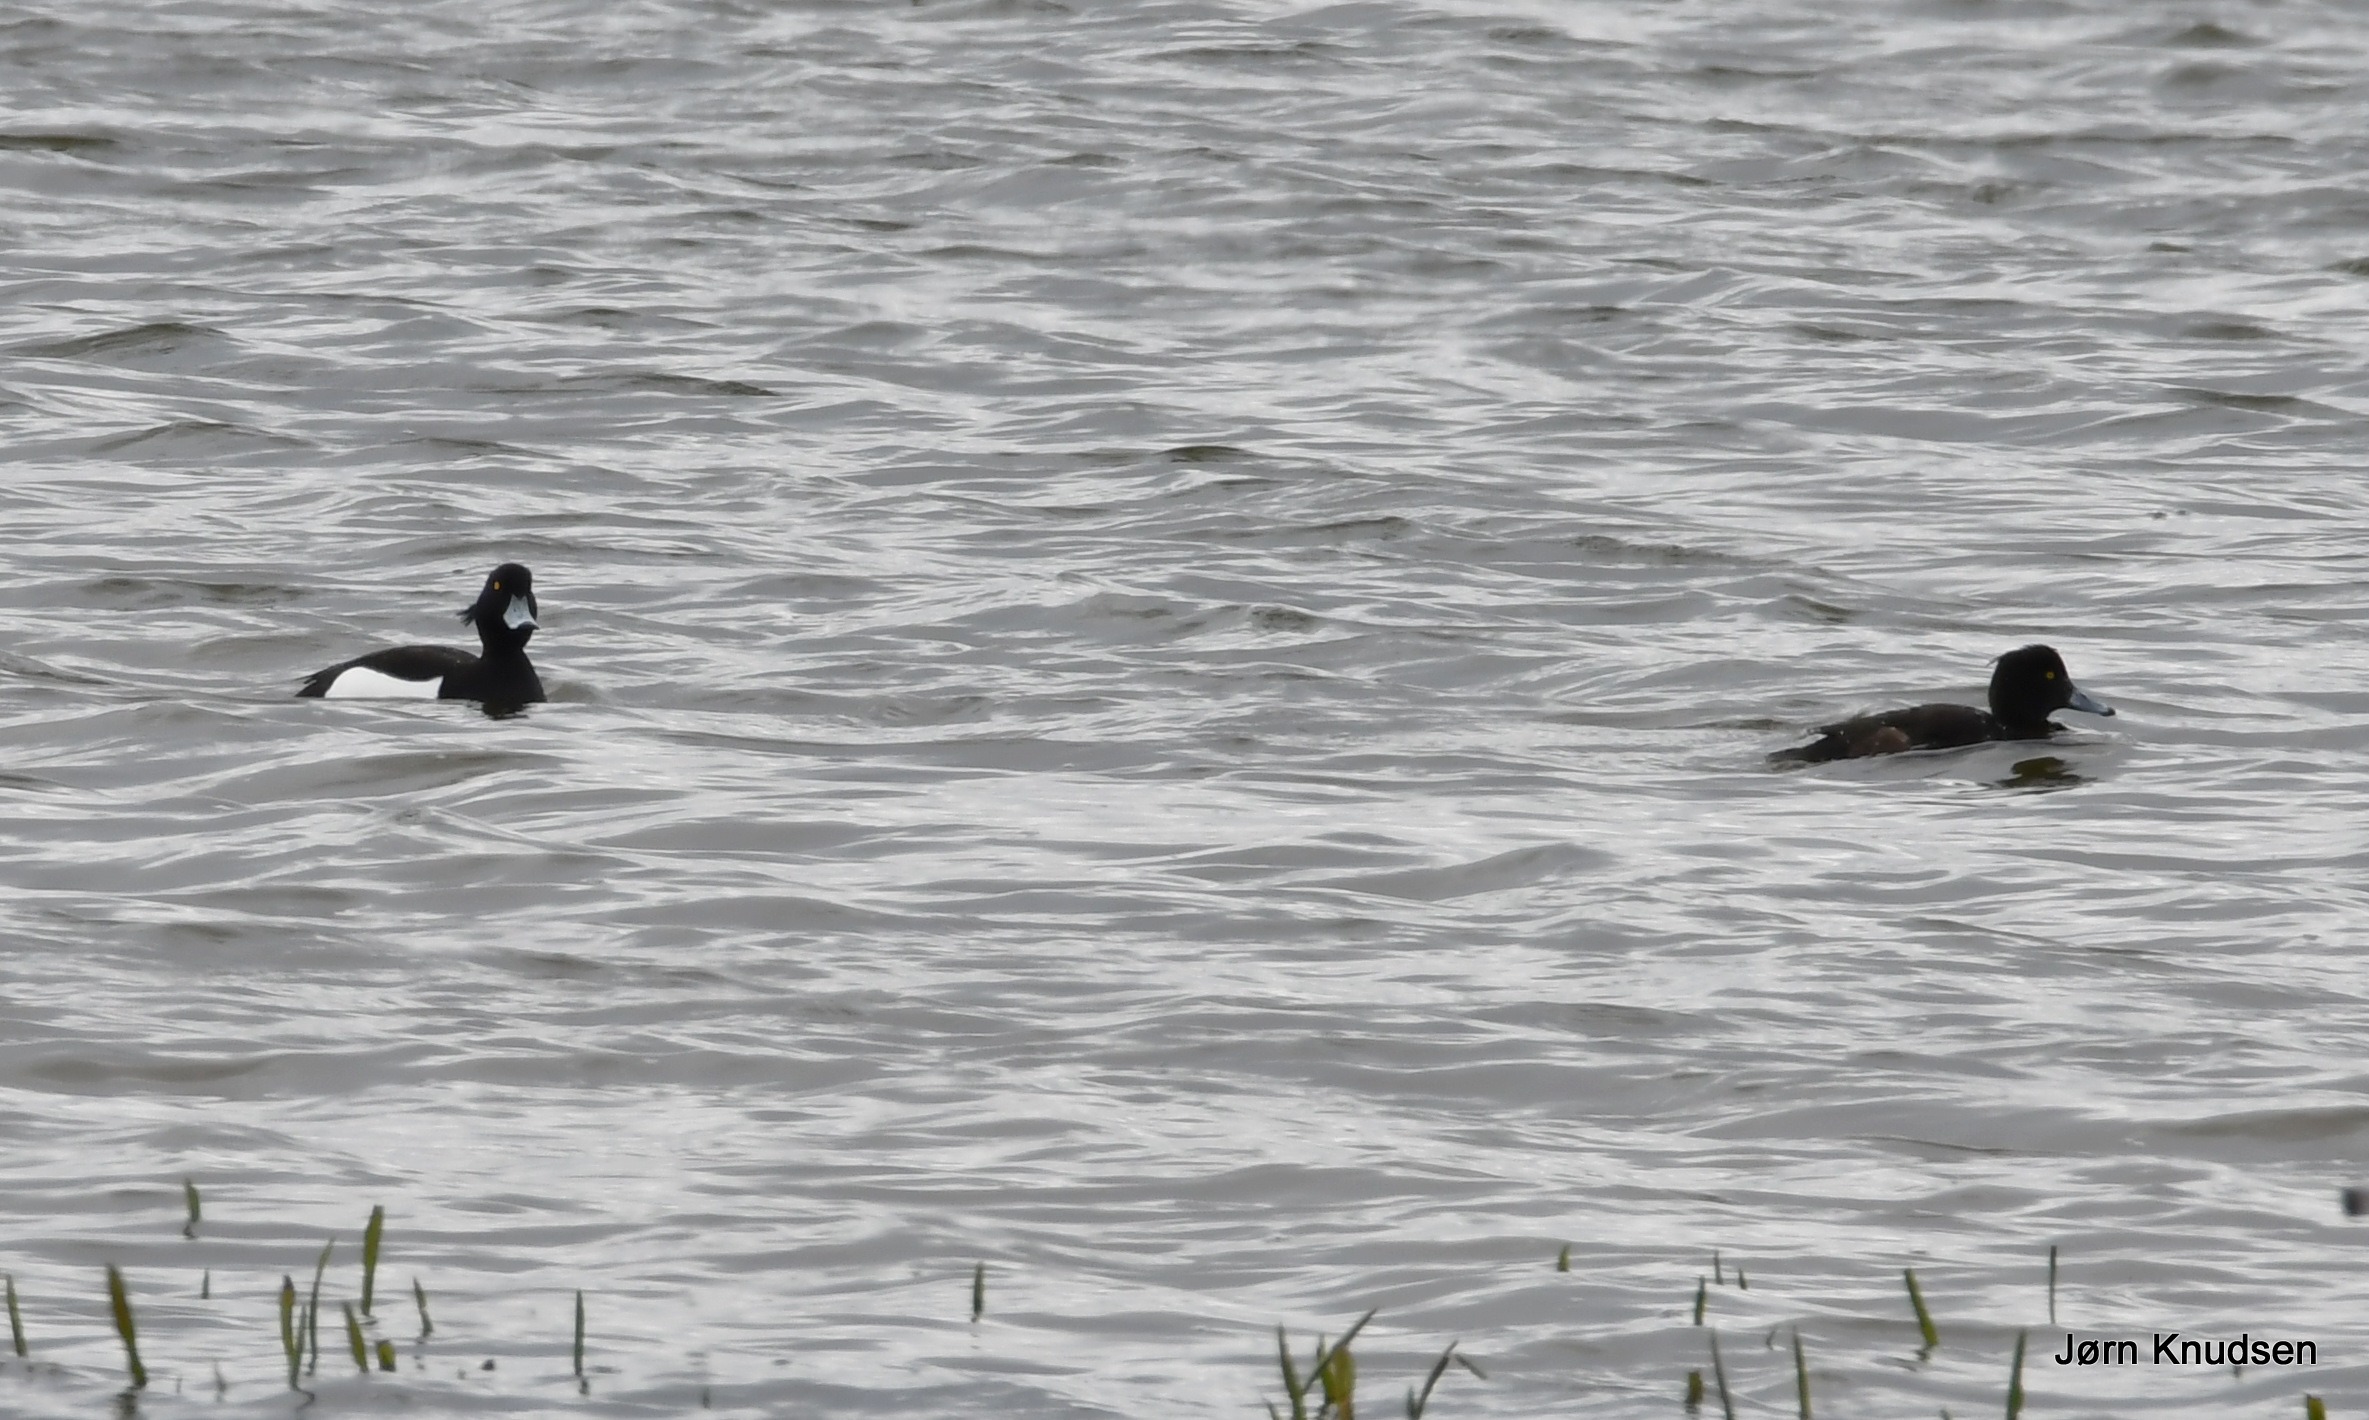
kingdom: Animalia
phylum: Chordata
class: Aves
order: Anseriformes
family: Anatidae
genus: Aythya
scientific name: Aythya fuligula
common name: Troldand
